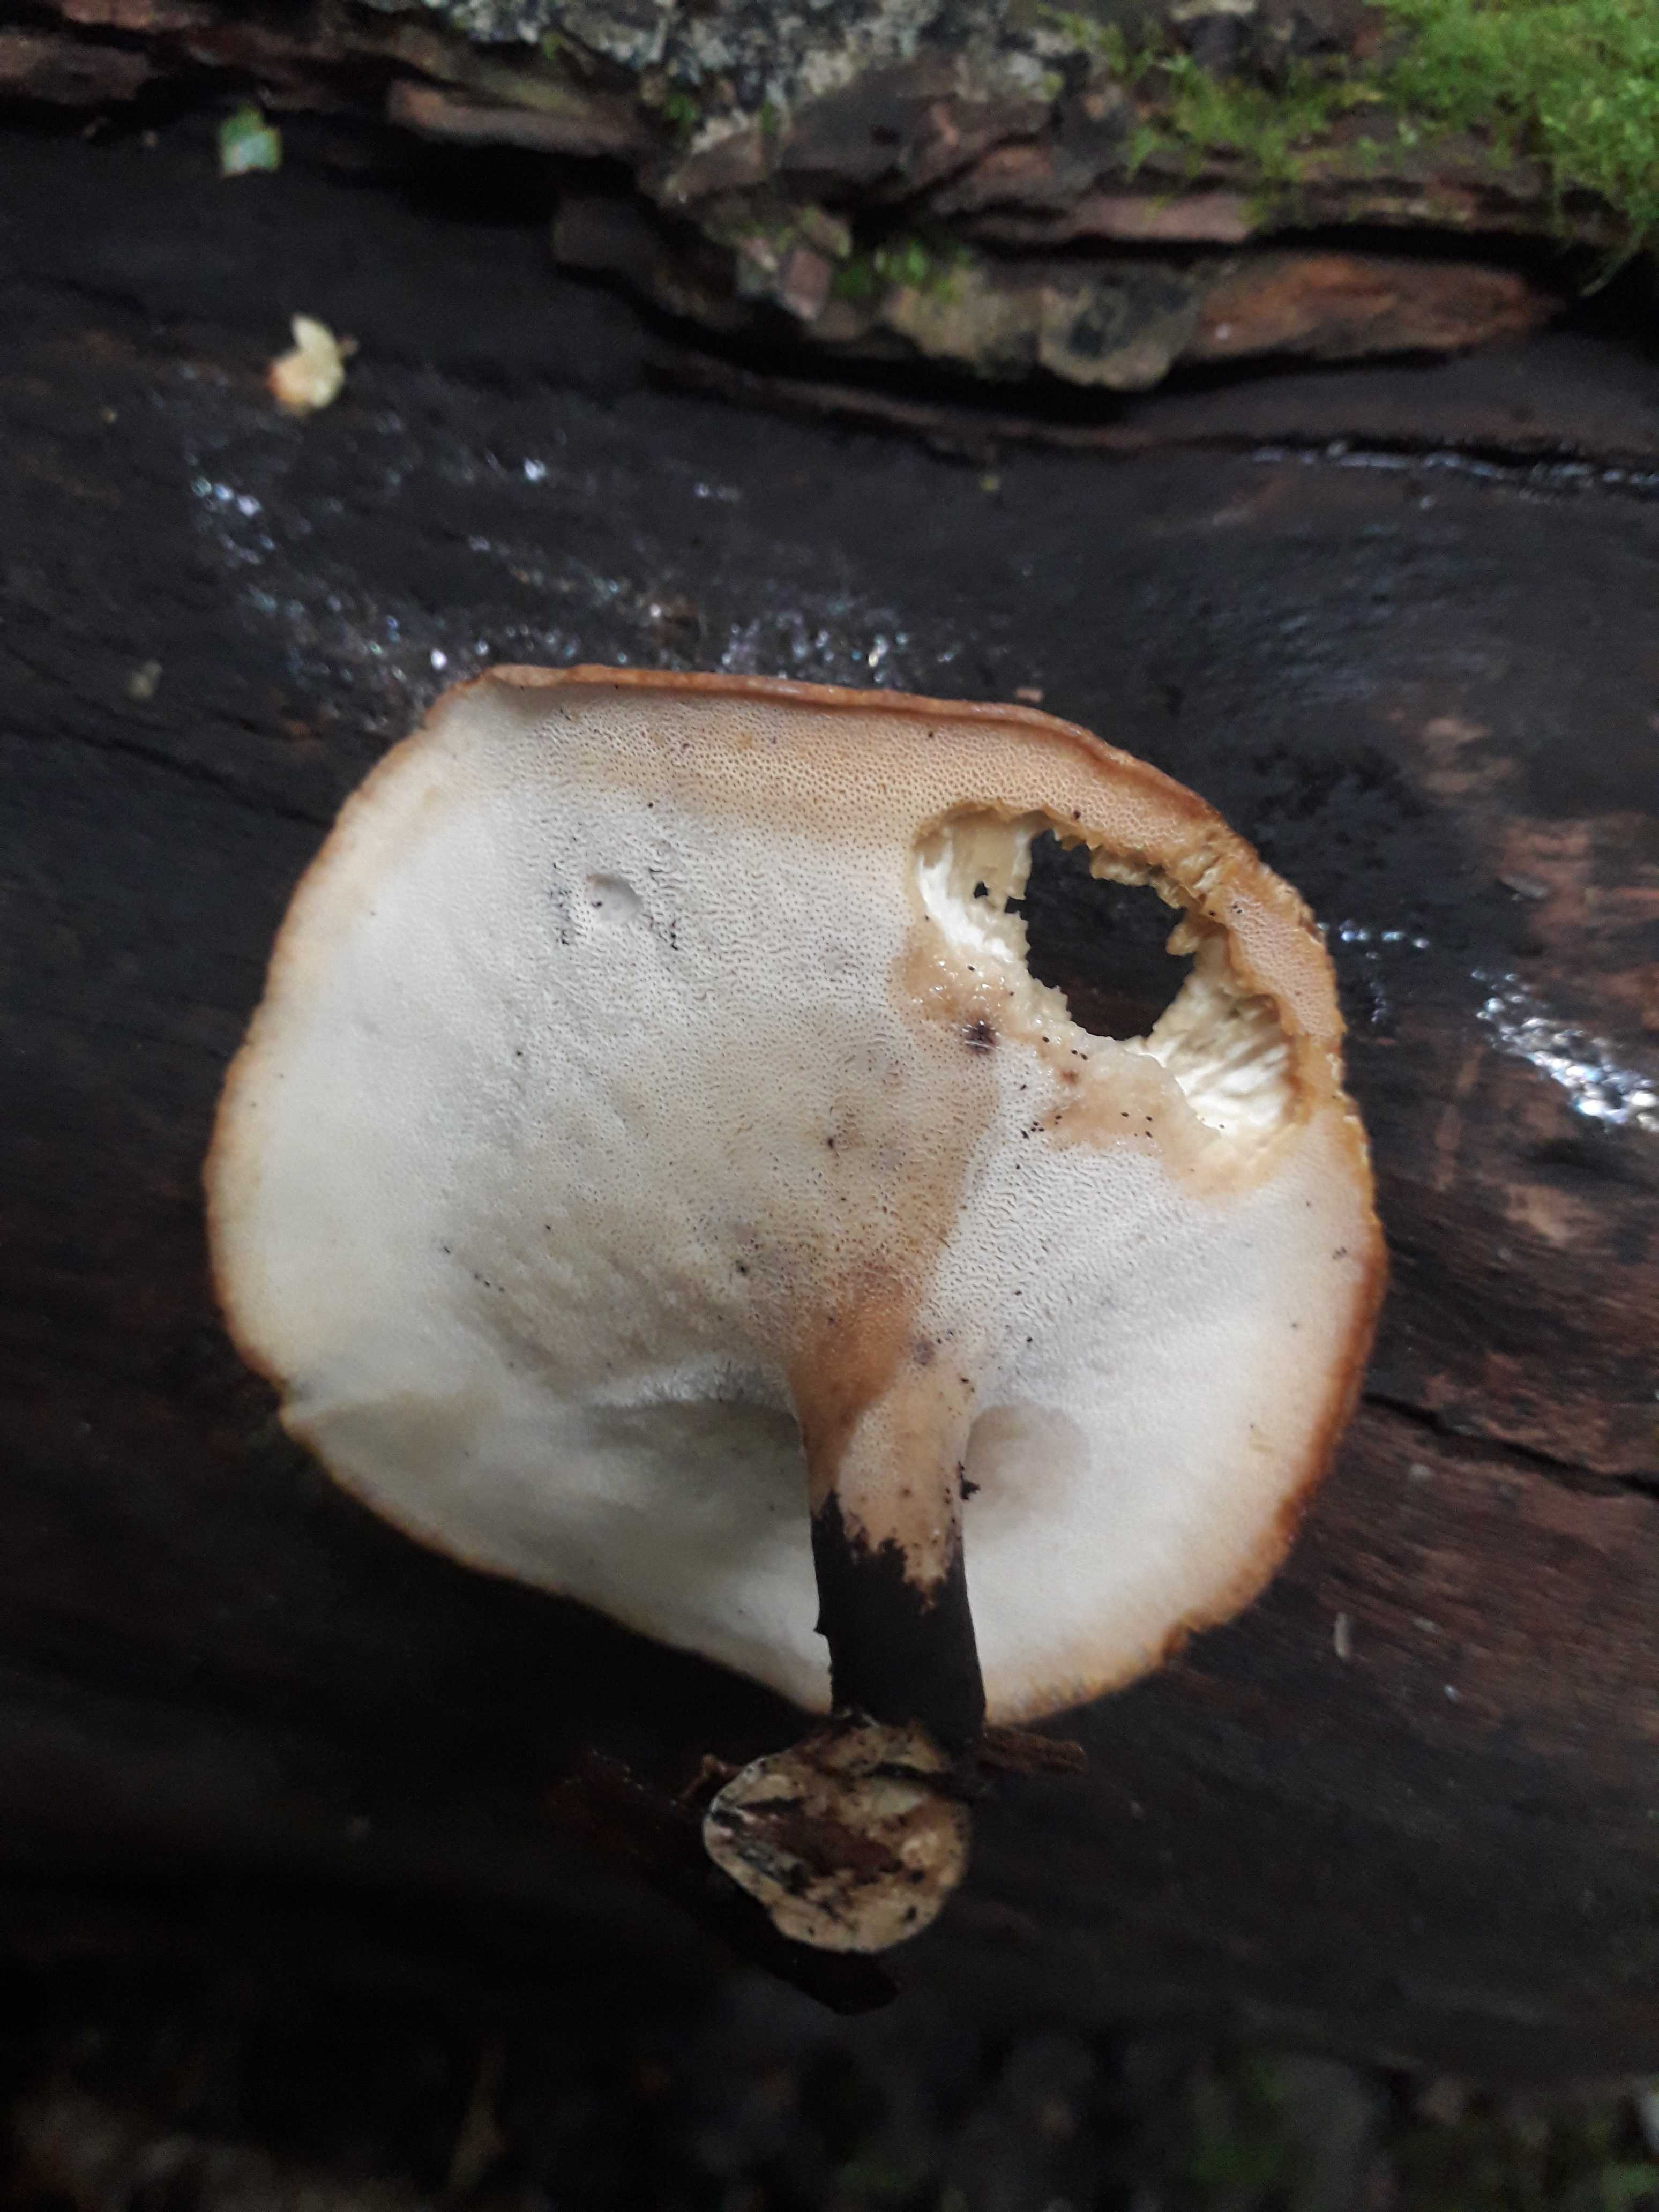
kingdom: Fungi
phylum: Basidiomycota
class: Agaricomycetes
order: Polyporales
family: Polyporaceae
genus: Cerioporus
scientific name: Cerioporus varius
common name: foranderlig stilkporesvamp
